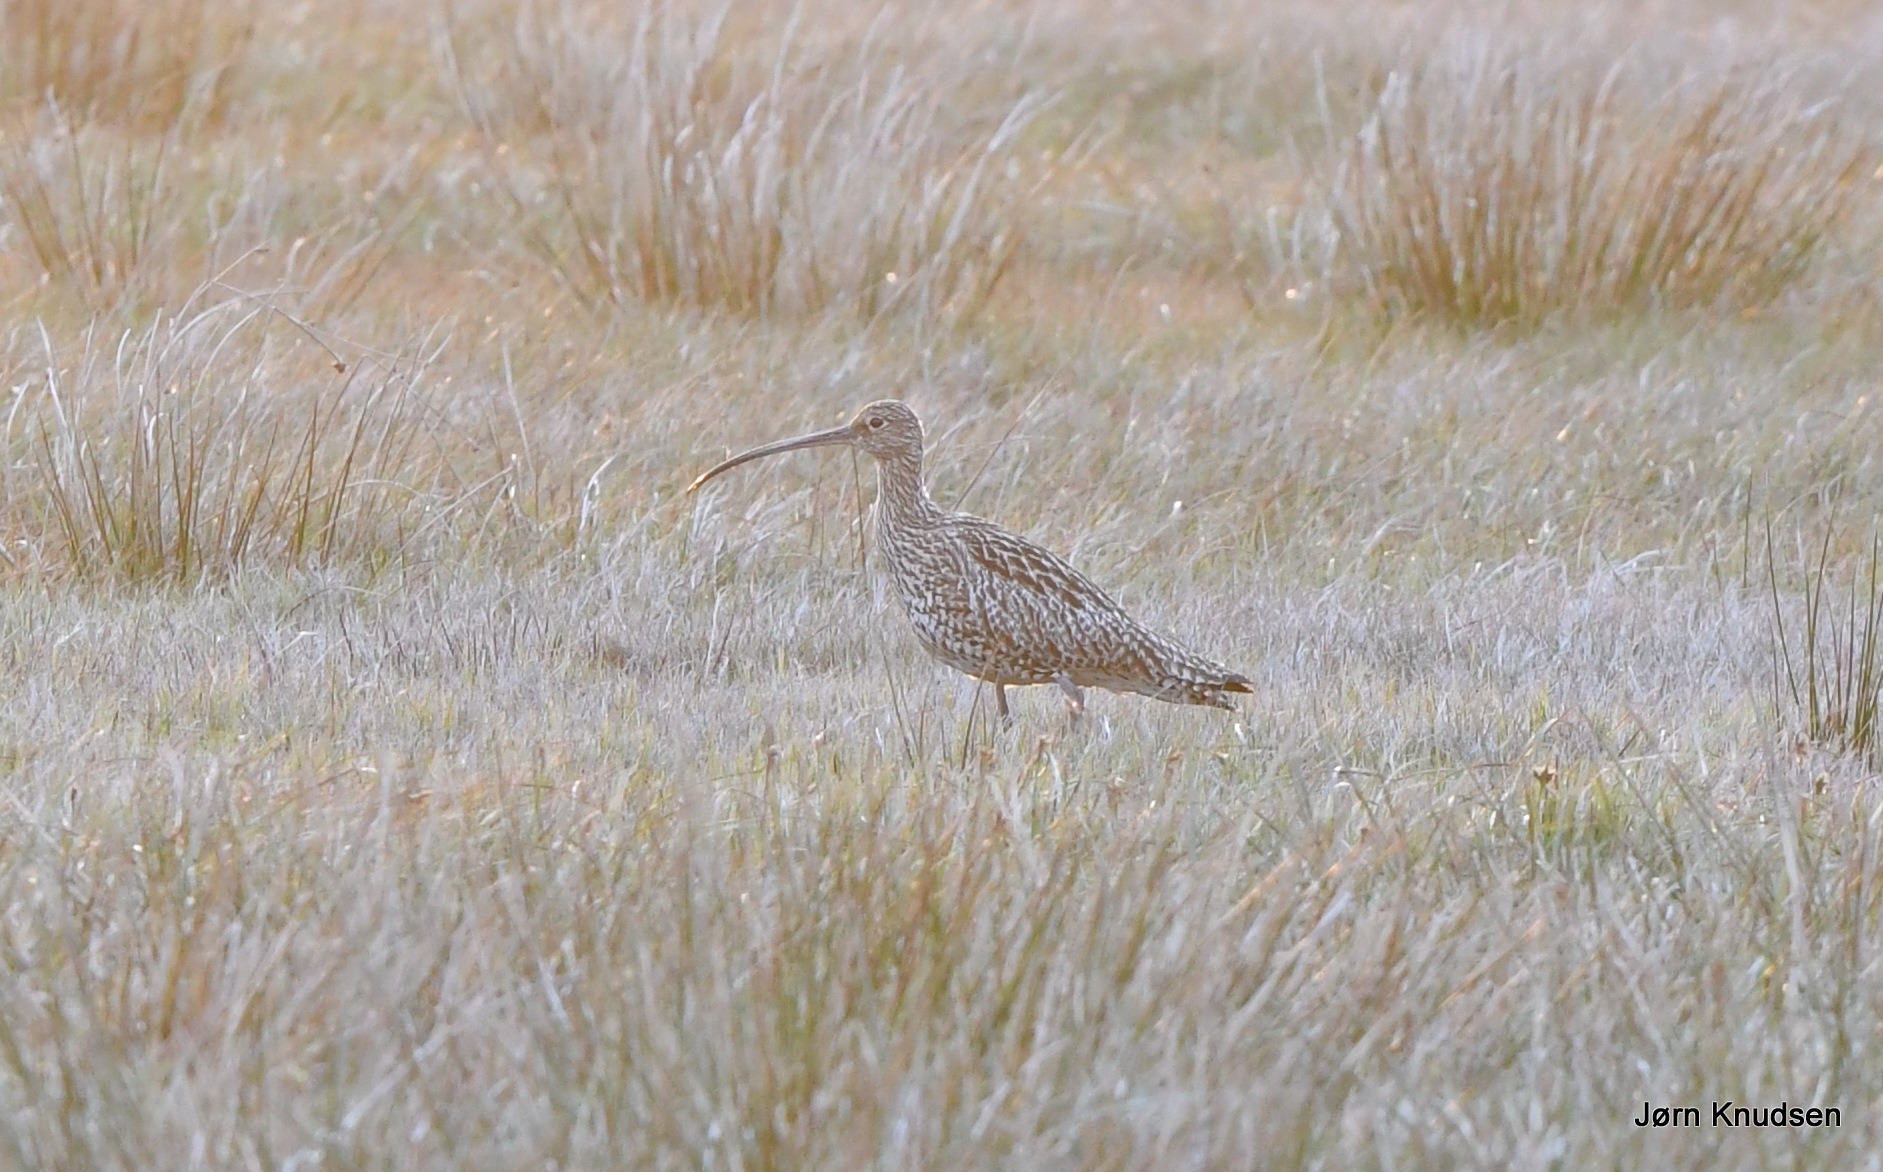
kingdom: Animalia
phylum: Chordata
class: Aves
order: Charadriiformes
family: Scolopacidae
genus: Numenius
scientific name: Numenius arquata
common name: Storspove
